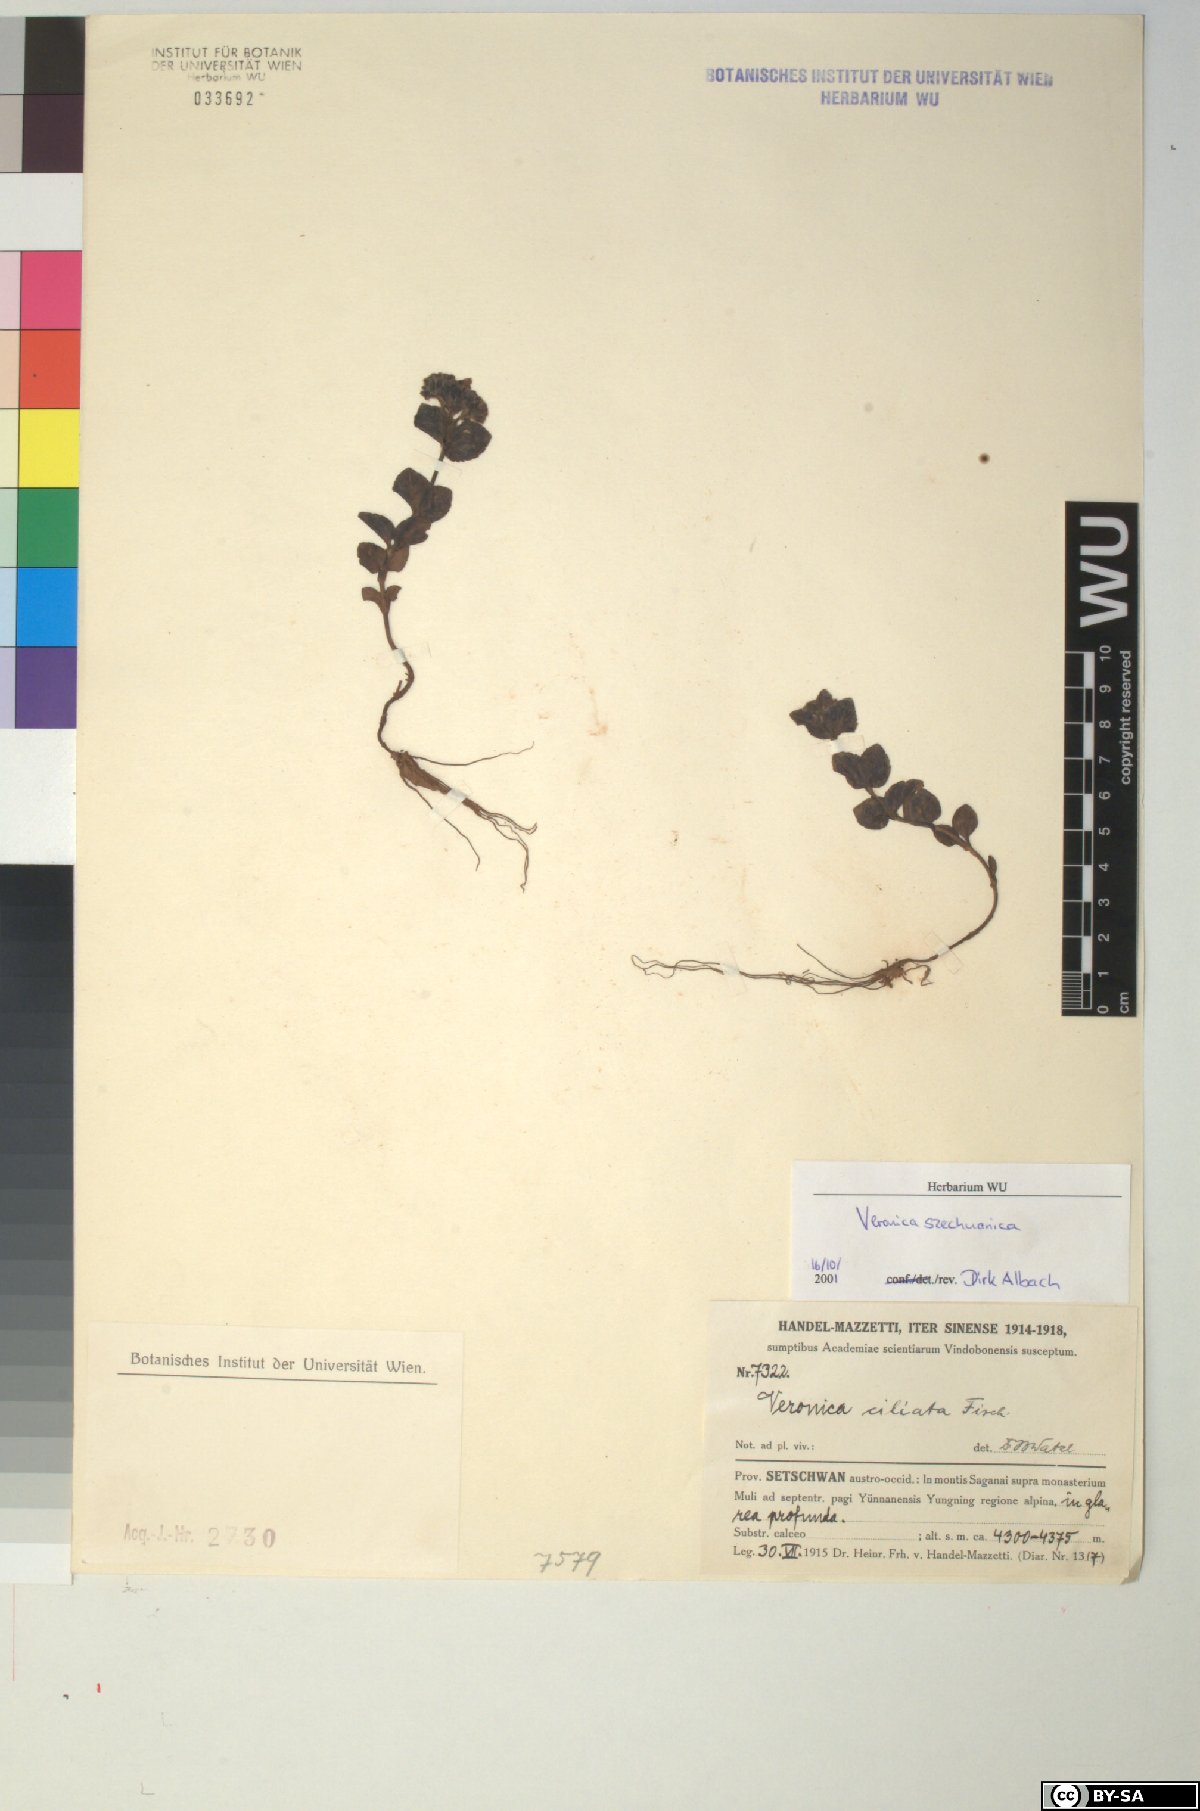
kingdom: Plantae
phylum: Tracheophyta
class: Magnoliopsida
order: Lamiales
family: Plantaginaceae
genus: Veronica
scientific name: Veronica szechuanica
